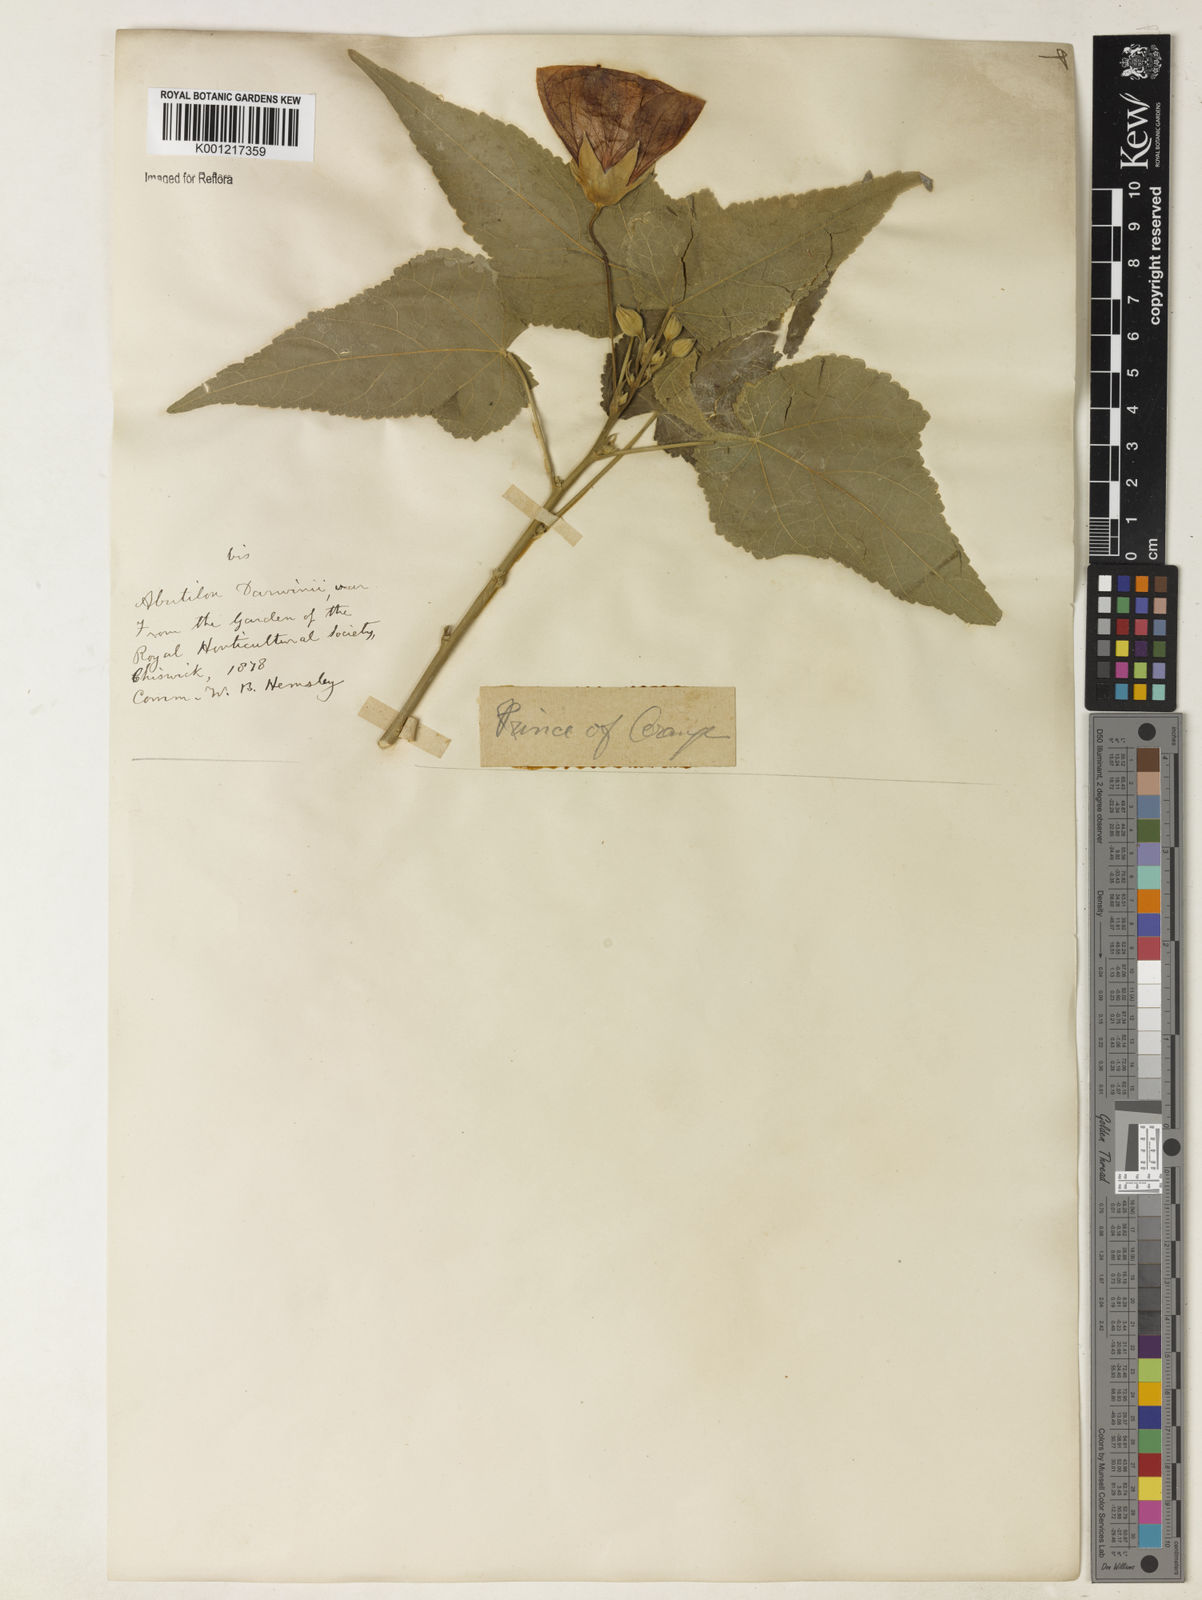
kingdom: Plantae
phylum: Tracheophyta
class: Magnoliopsida
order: Malvales
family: Malvaceae
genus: Callianthe
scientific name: Callianthe darwinii
